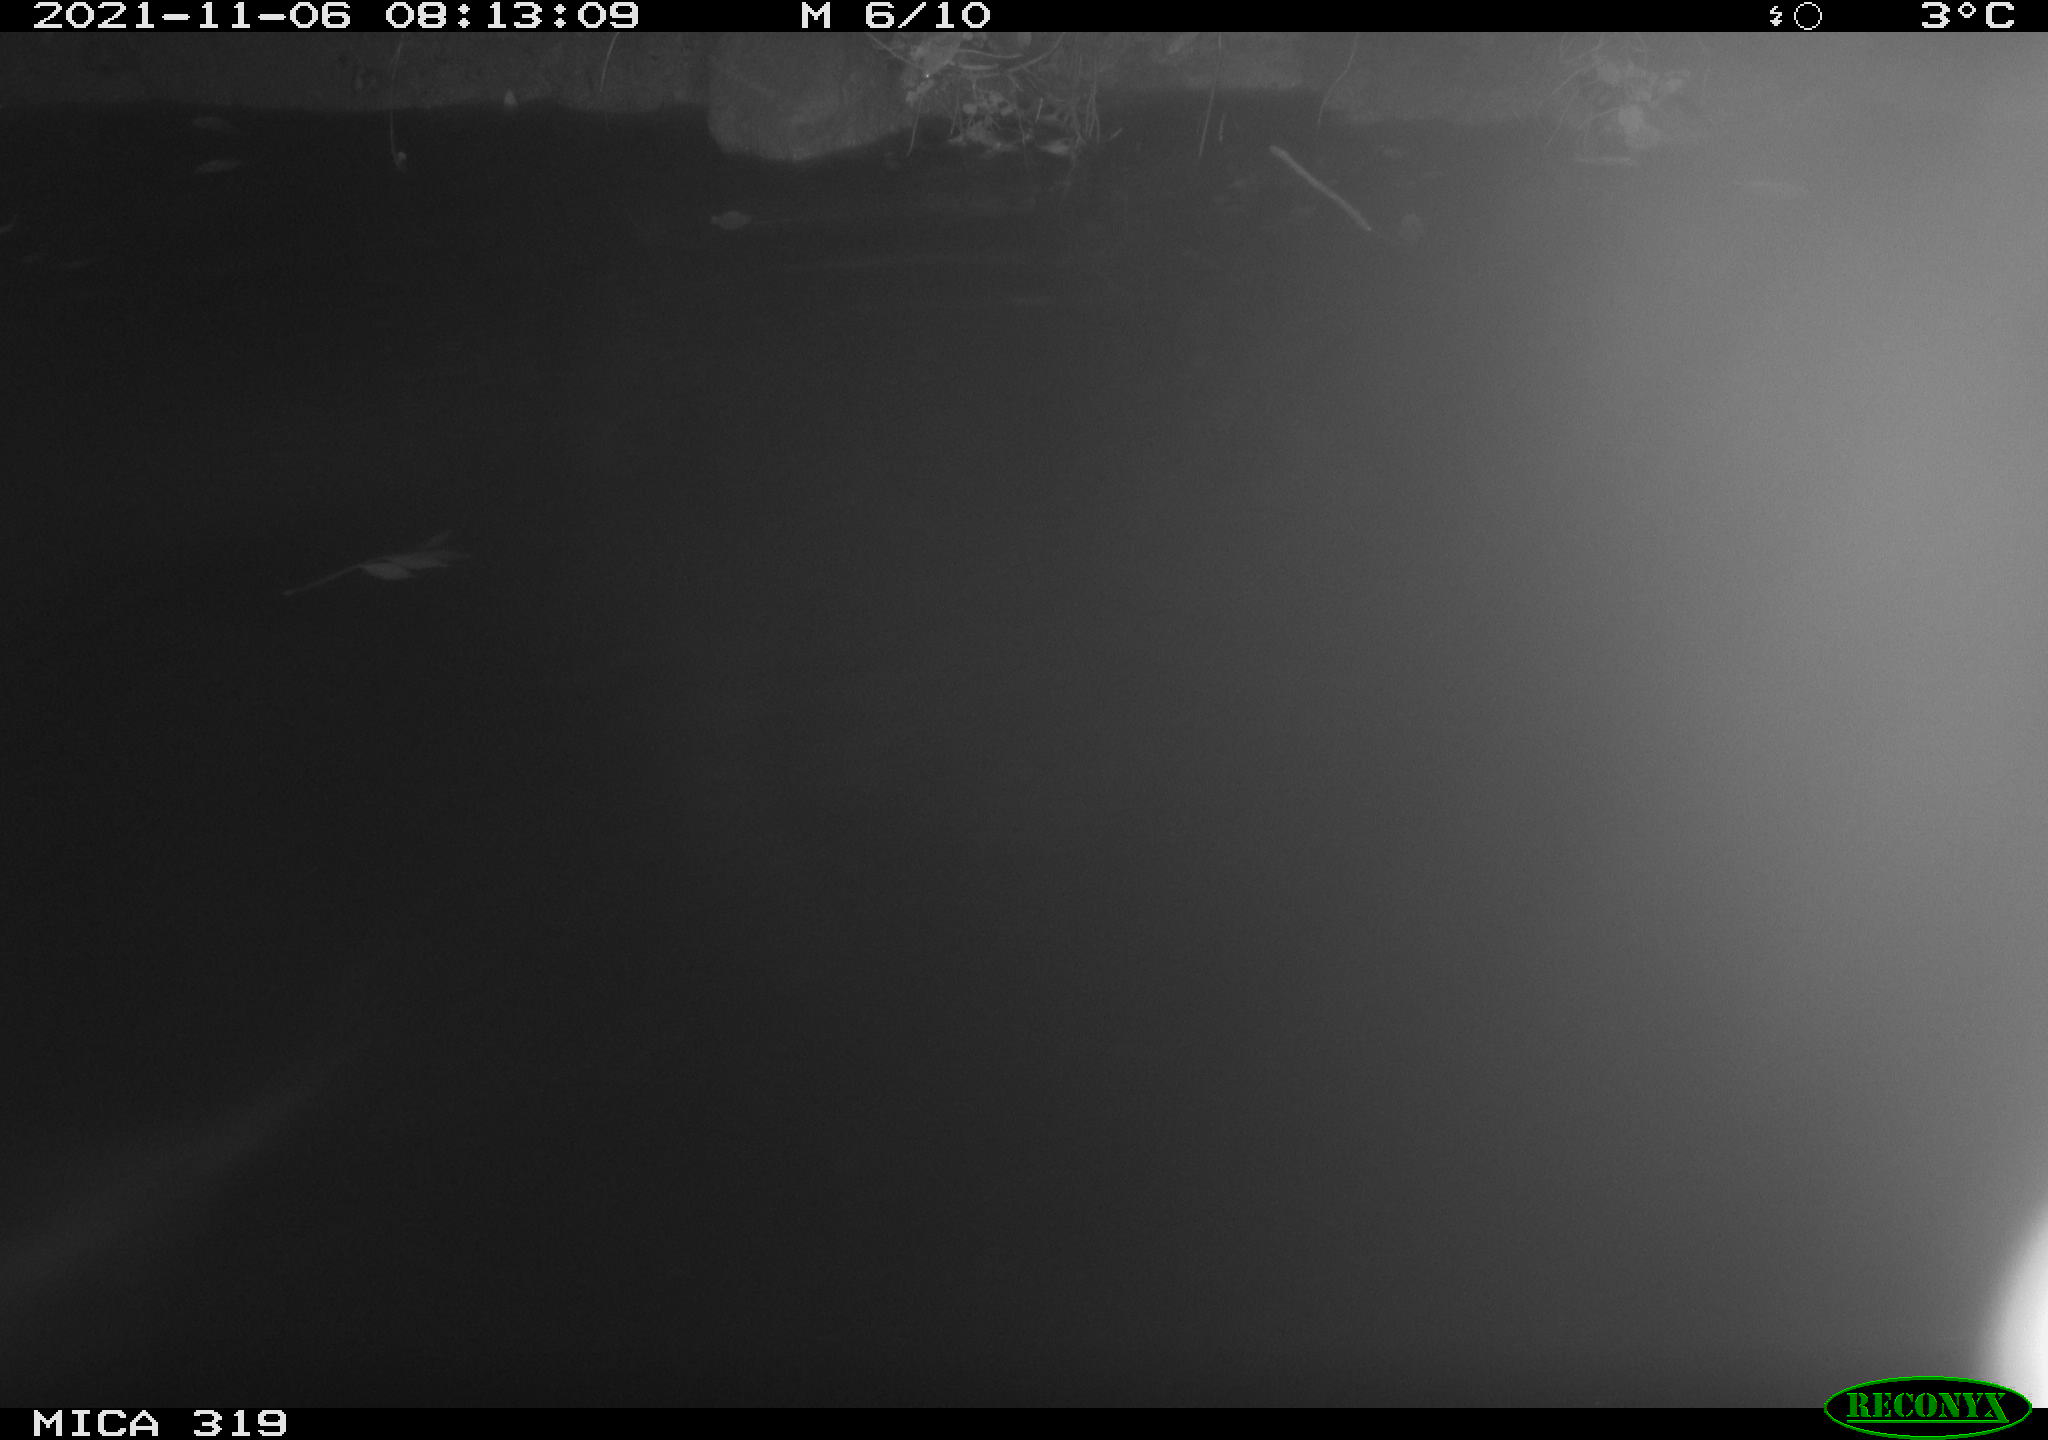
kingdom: Animalia
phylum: Chordata
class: Aves
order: Anseriformes
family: Anatidae
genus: Anas
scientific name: Anas platyrhynchos
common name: Mallard
